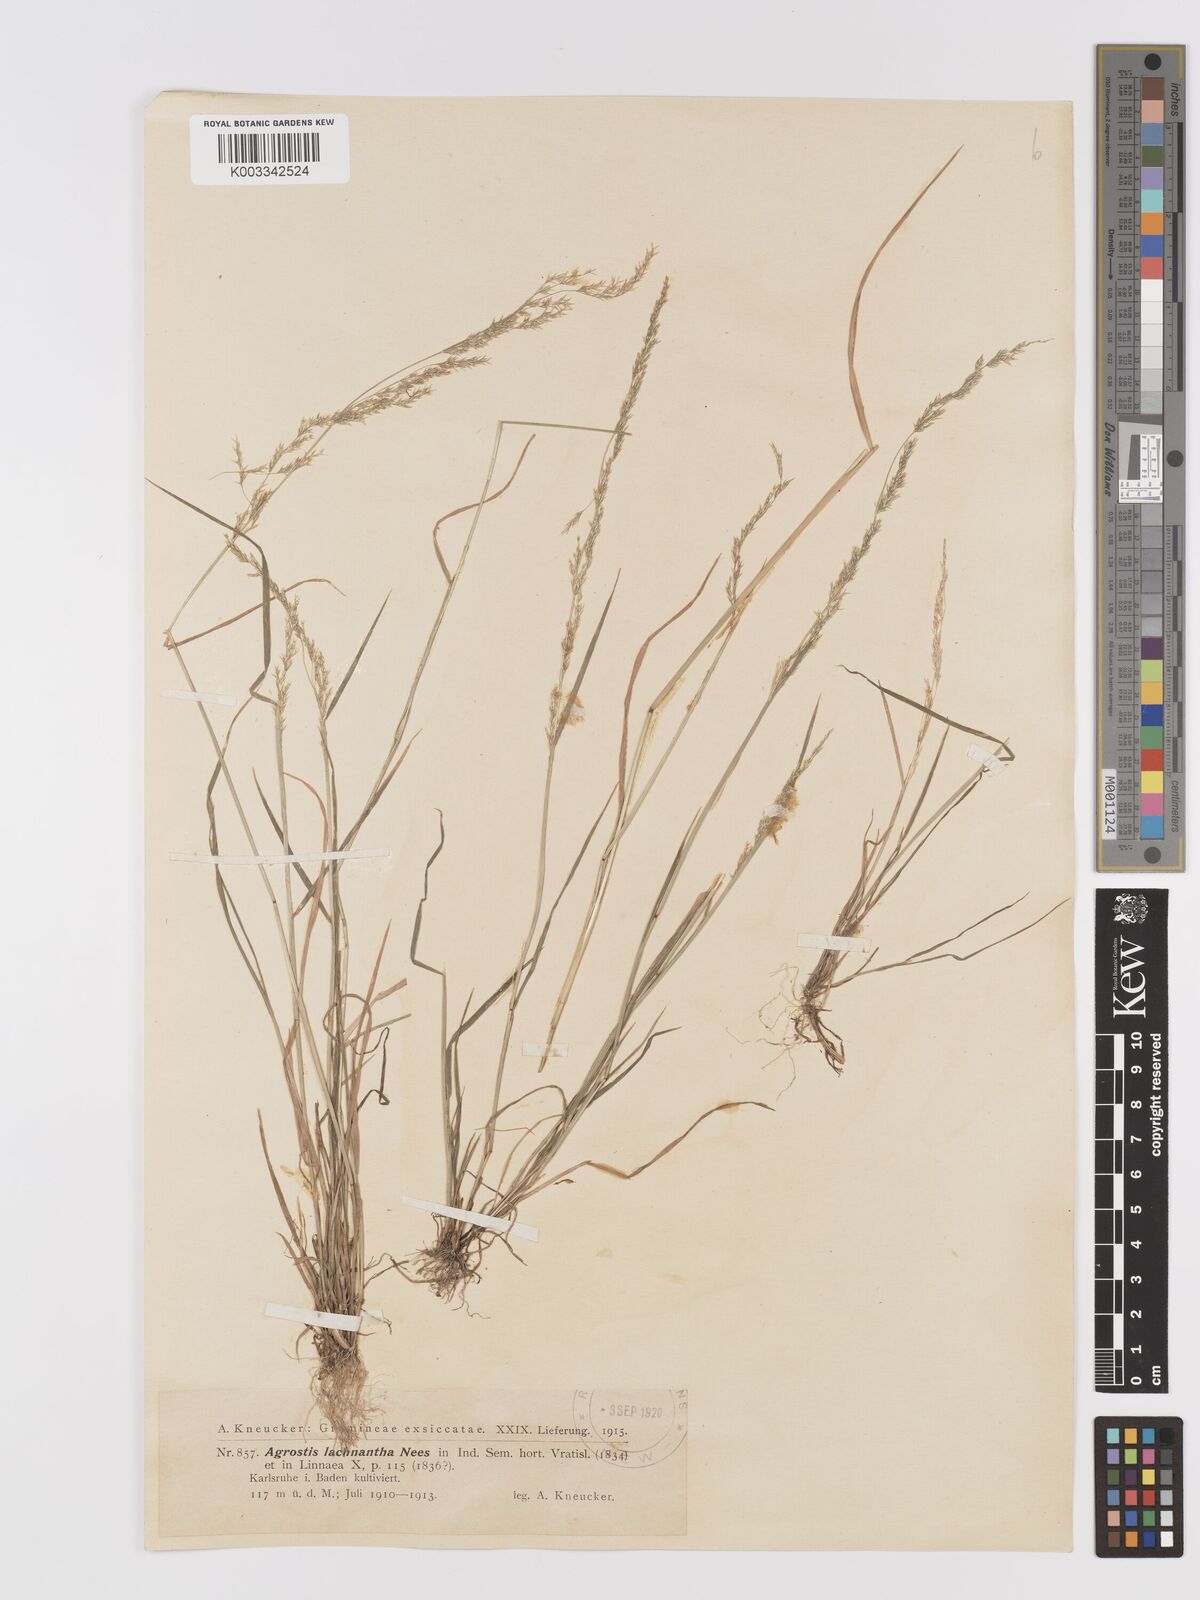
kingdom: Plantae
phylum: Tracheophyta
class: Liliopsida
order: Poales
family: Poaceae
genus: Lachnagrostis
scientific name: Lachnagrostis lachnantha
